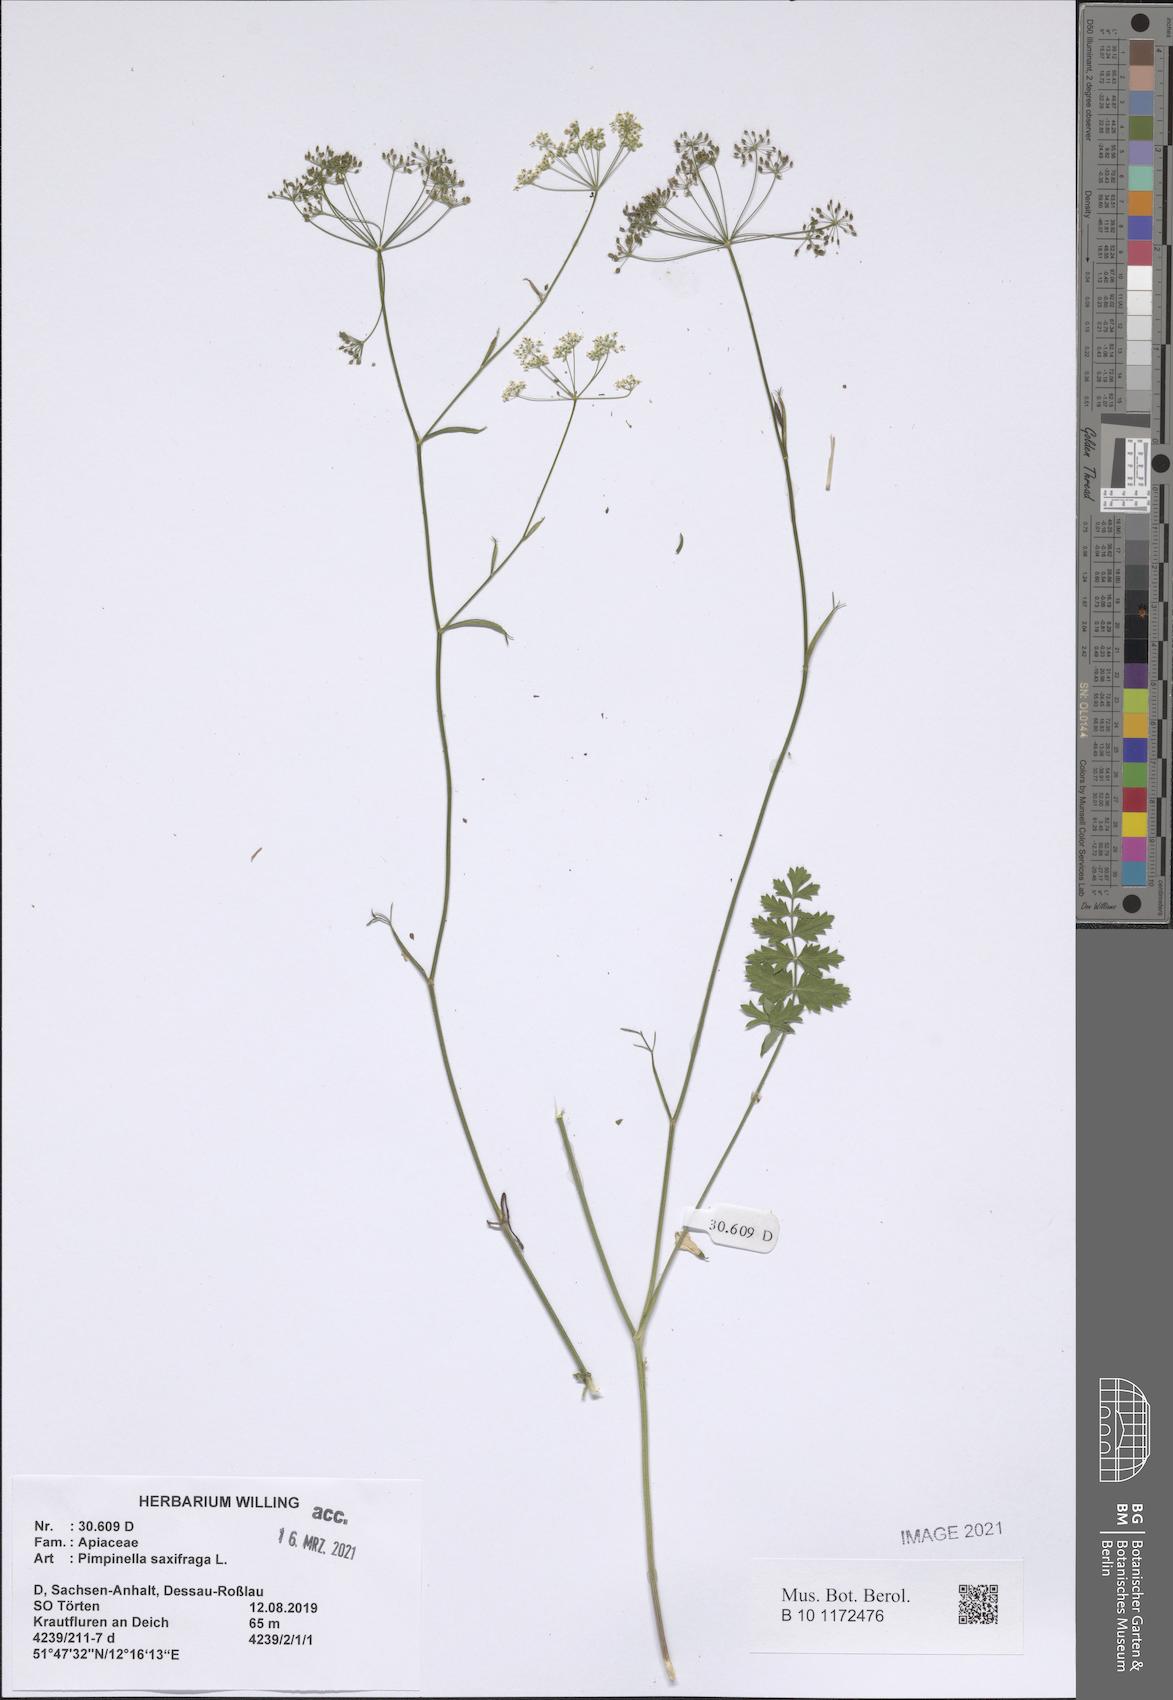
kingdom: Plantae
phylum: Tracheophyta
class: Magnoliopsida
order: Apiales
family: Apiaceae
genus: Pimpinella
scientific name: Pimpinella saxifraga
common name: Burnet-saxifrage
